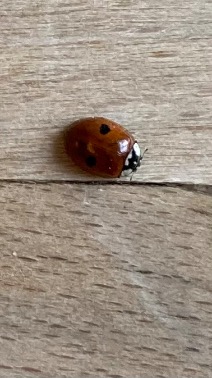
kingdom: Animalia
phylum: Arthropoda
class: Insecta
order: Coleoptera
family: Coccinellidae
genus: Adalia
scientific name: Adalia bipunctata
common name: Toplettet mariehøne
